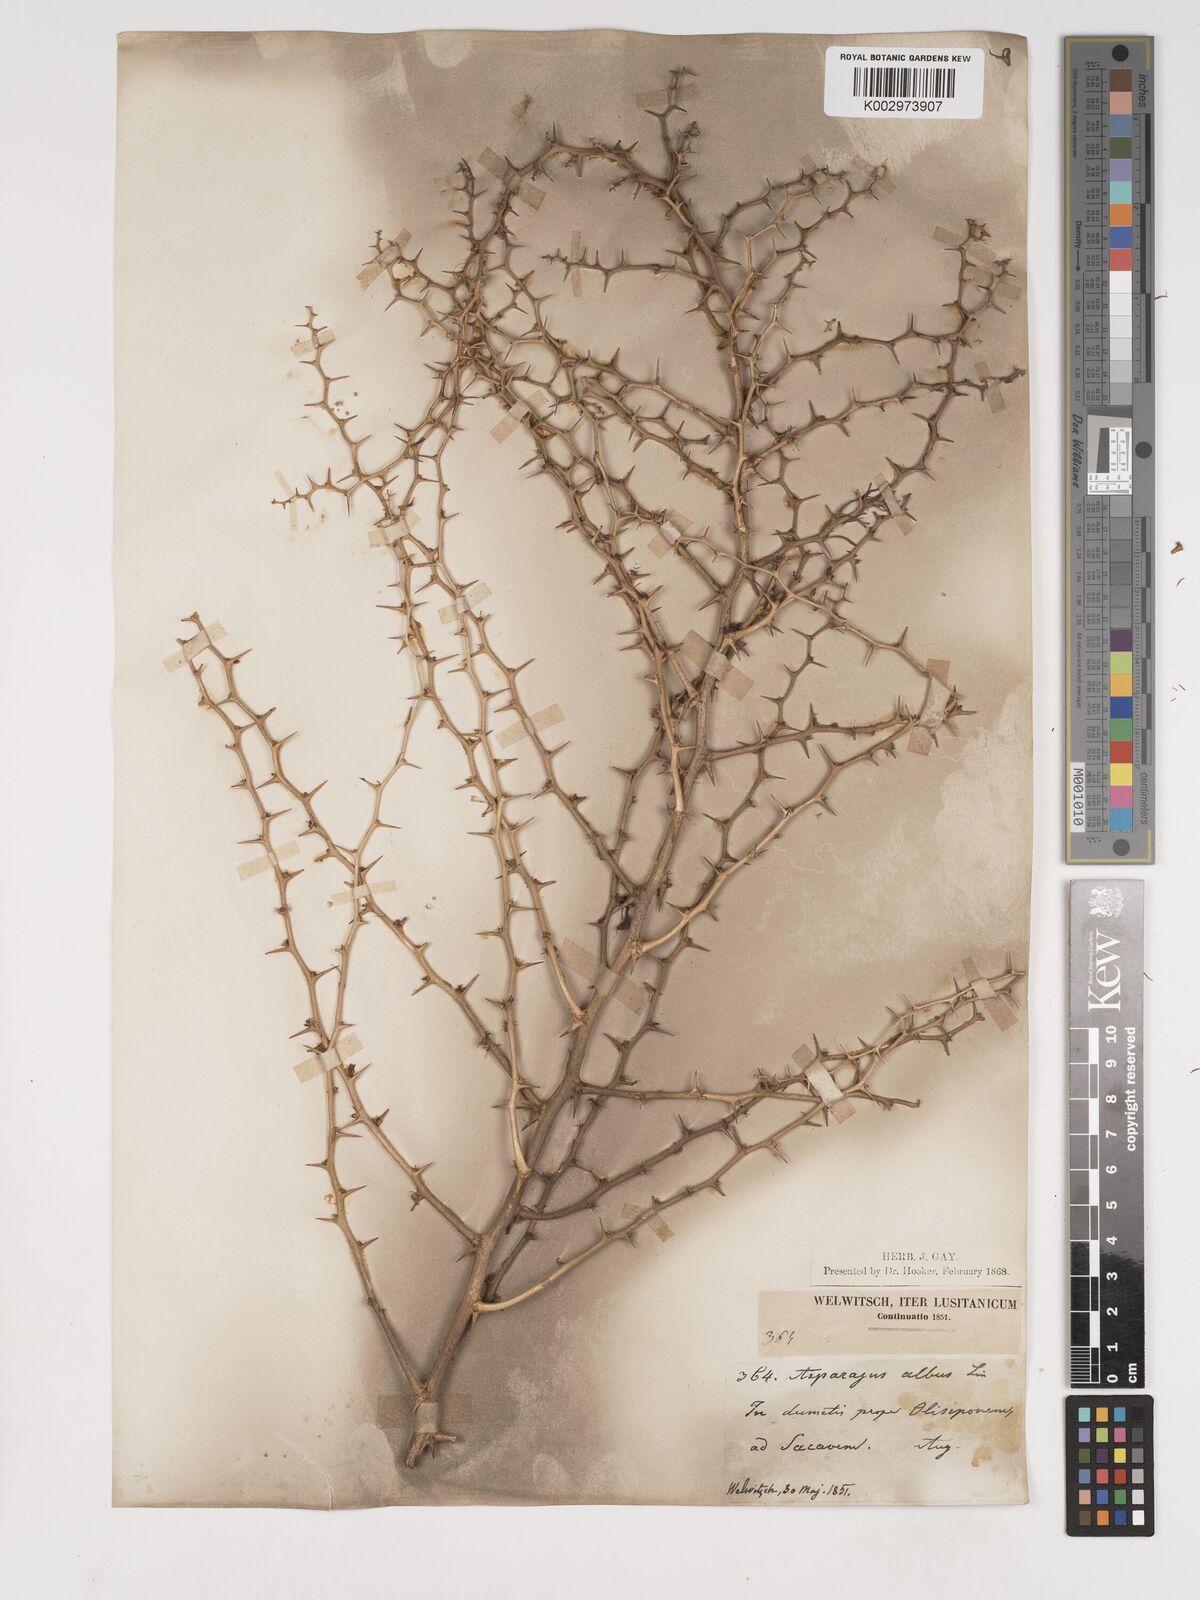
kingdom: Plantae
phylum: Tracheophyta
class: Liliopsida
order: Asparagales
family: Asparagaceae
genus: Asparagus
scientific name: Asparagus albus
